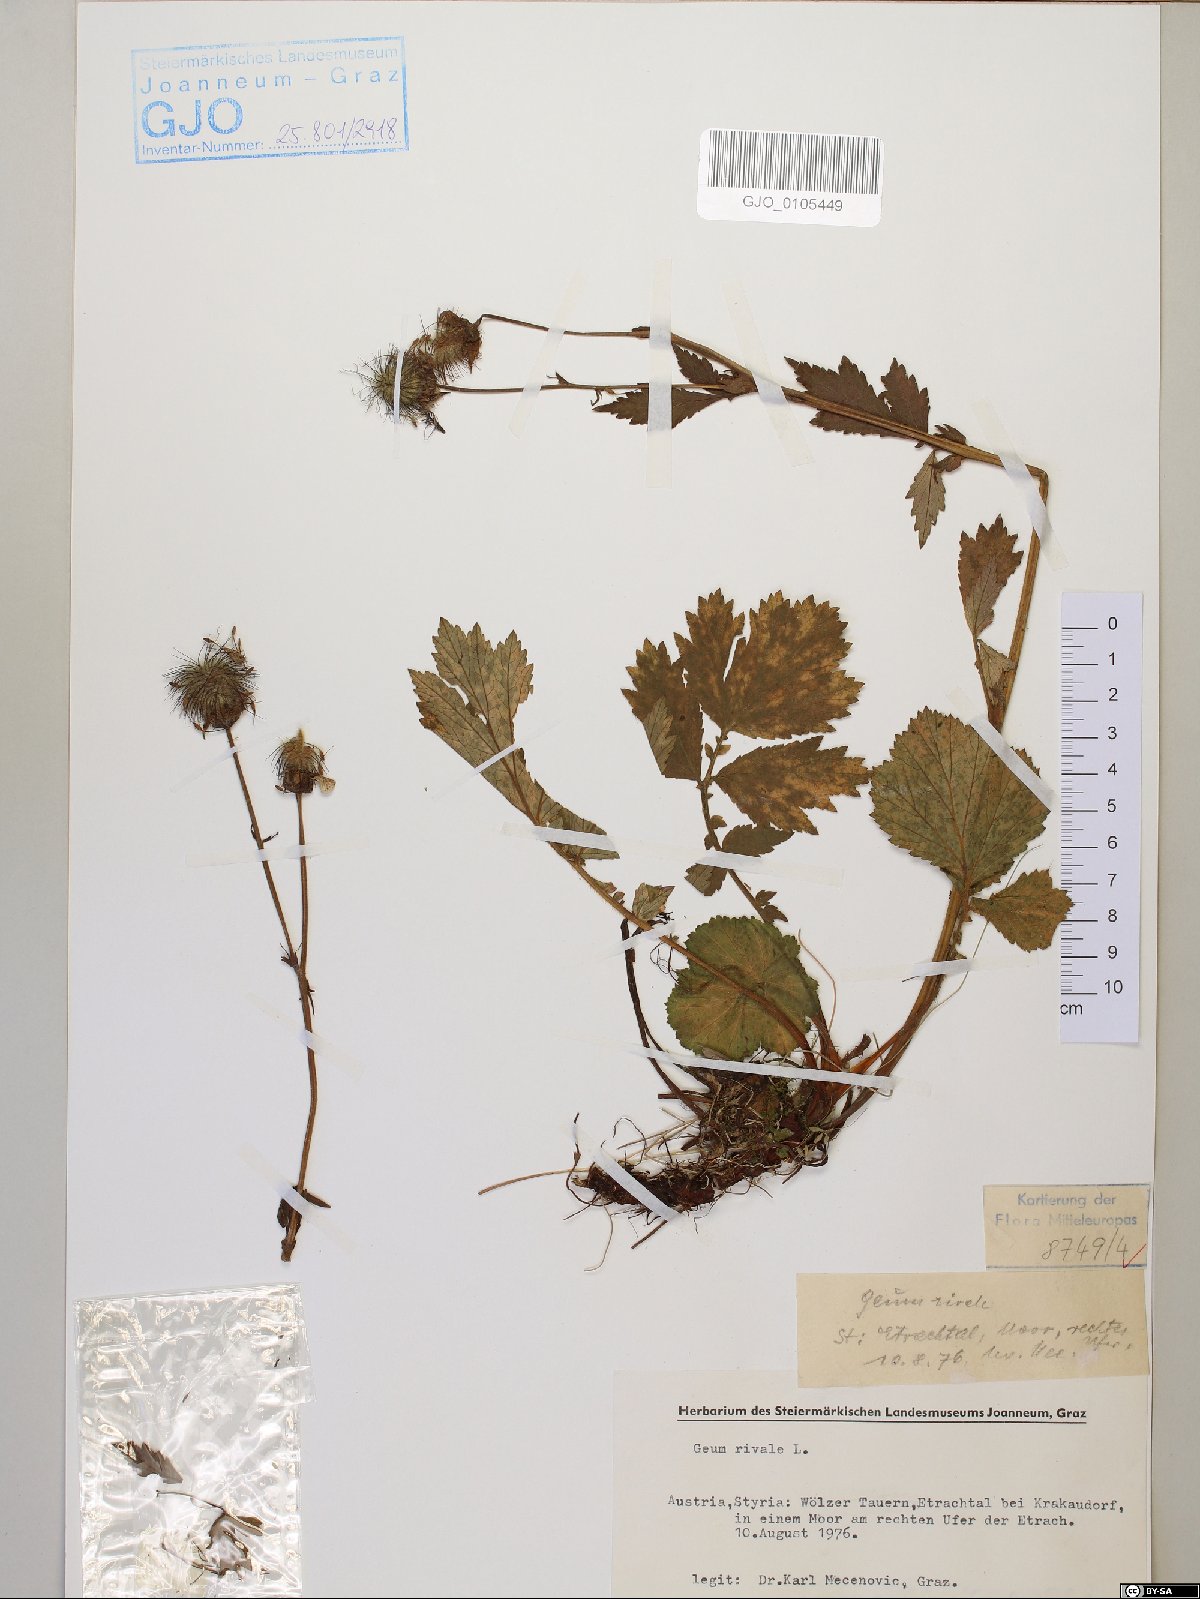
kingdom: Plantae
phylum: Tracheophyta
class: Magnoliopsida
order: Rosales
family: Rosaceae
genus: Geum
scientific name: Geum rivale
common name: Water avens
